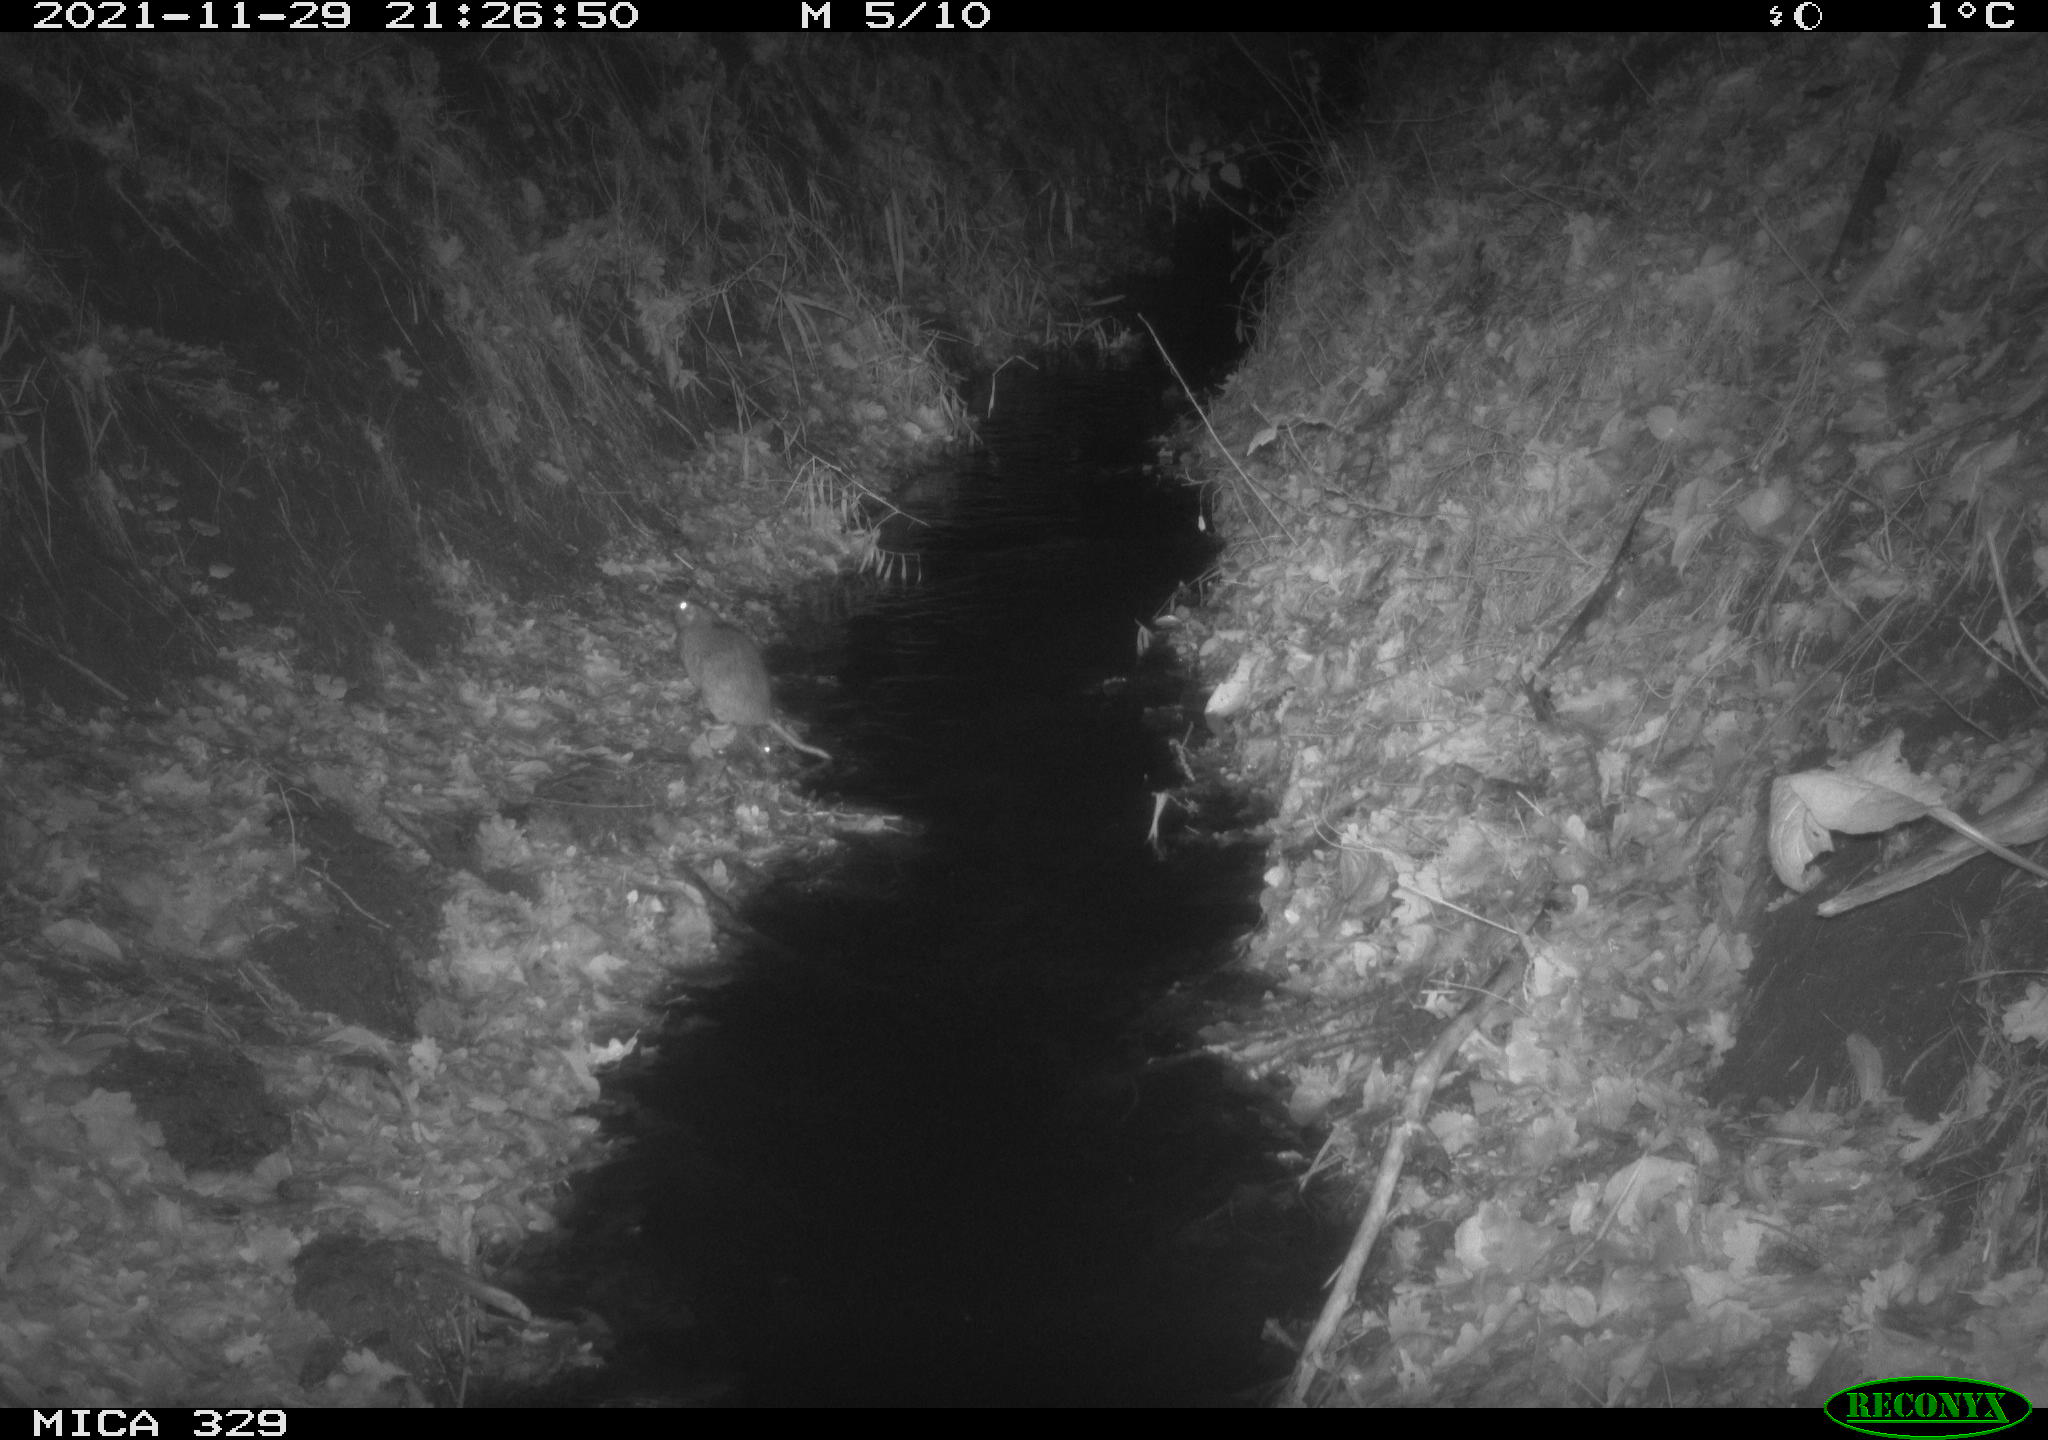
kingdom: Animalia
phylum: Chordata
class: Mammalia
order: Rodentia
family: Muridae
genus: Rattus
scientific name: Rattus norvegicus
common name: Brown rat
